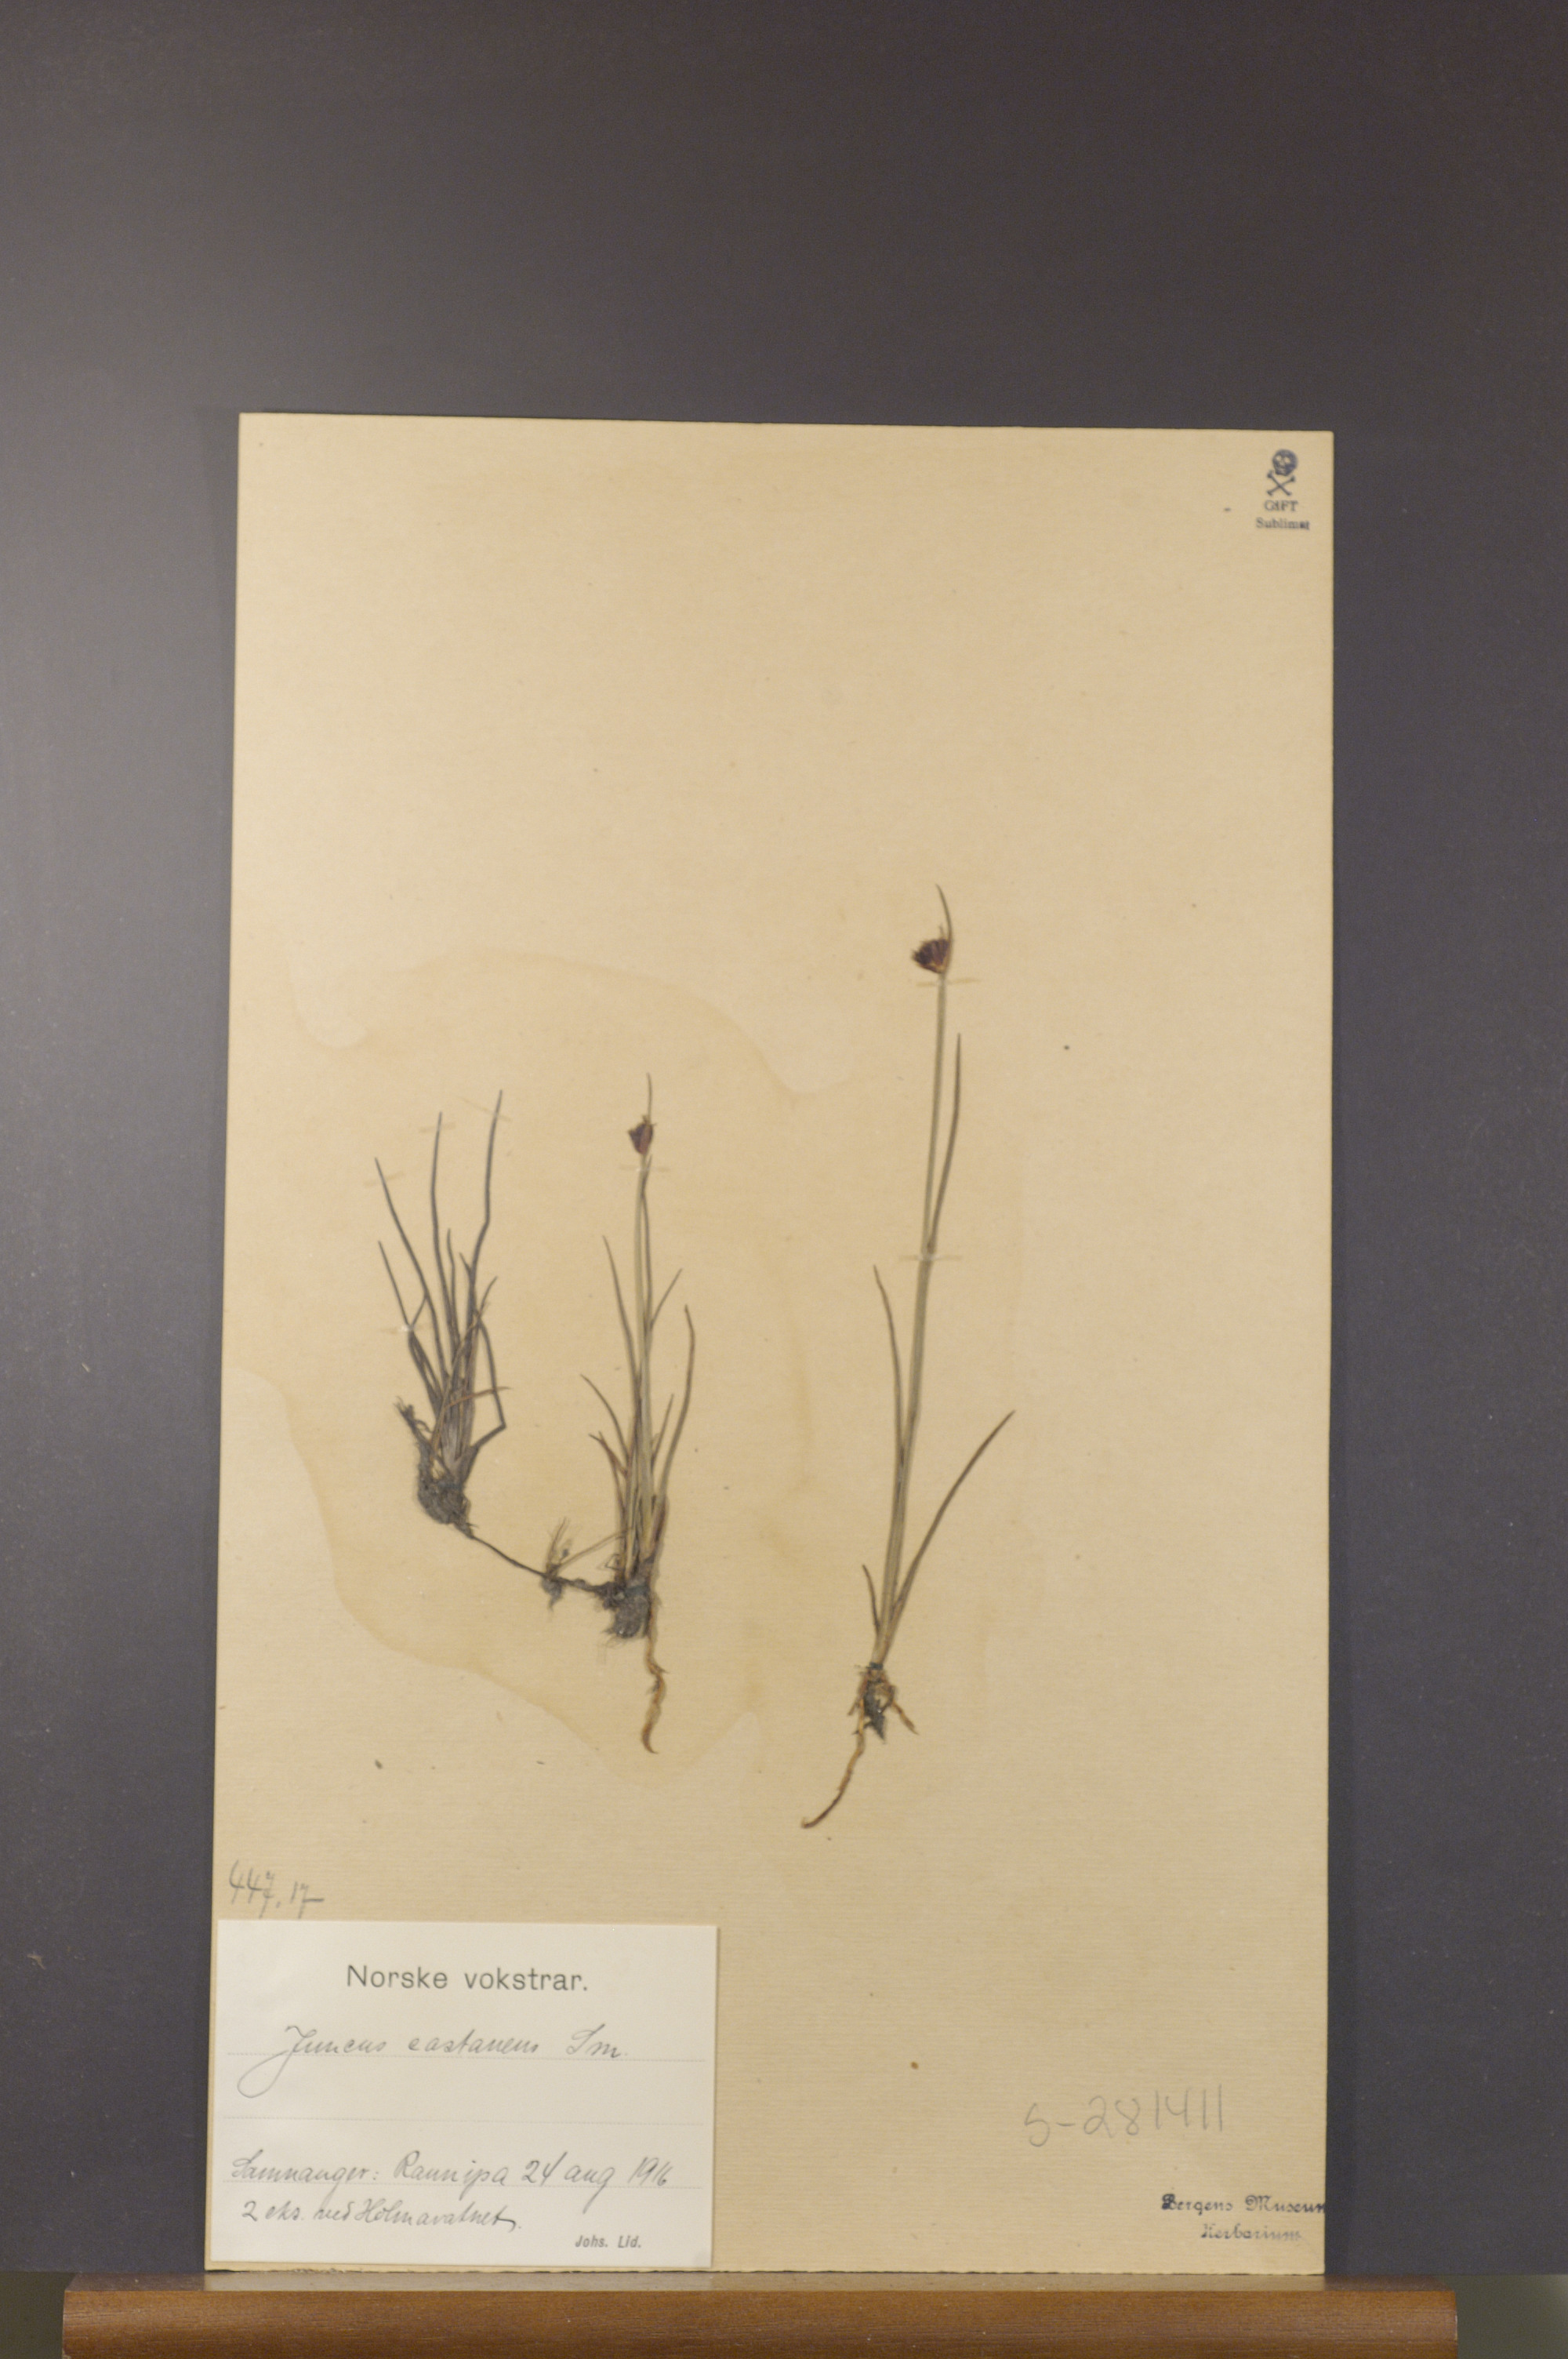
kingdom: Plantae
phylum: Tracheophyta
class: Liliopsida
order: Poales
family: Juncaceae
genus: Juncus
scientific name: Juncus castaneus
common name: Chestnut rush
